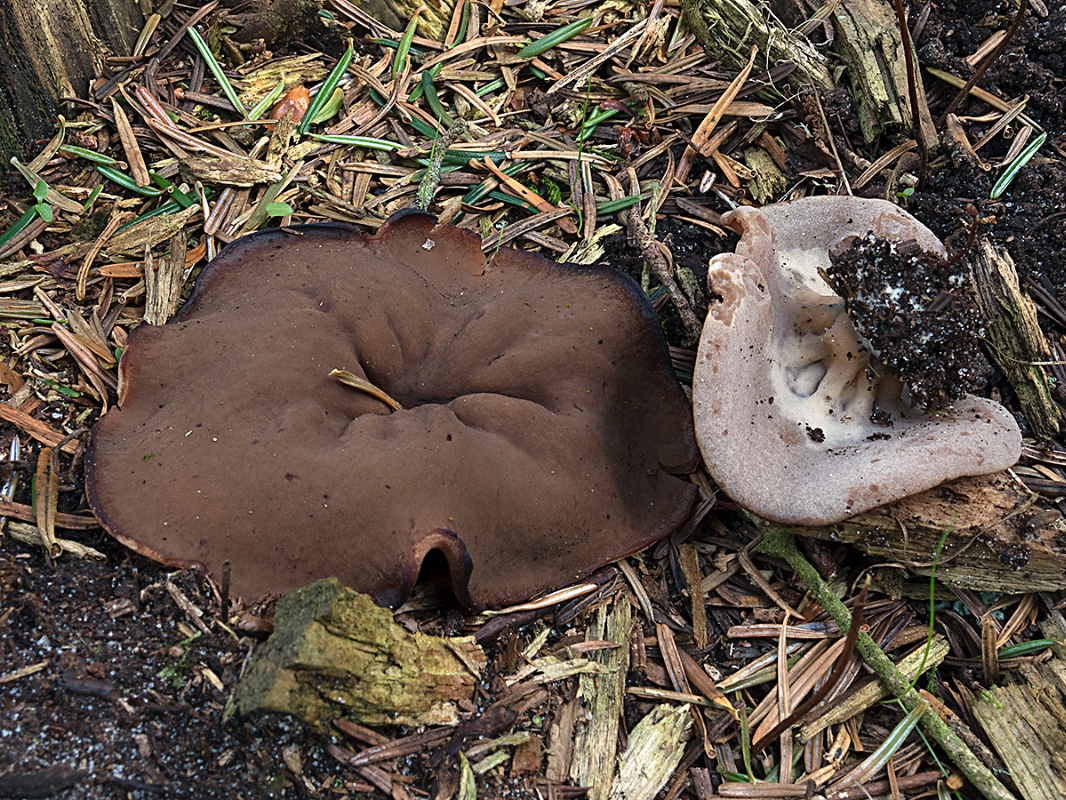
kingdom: Fungi
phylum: Ascomycota
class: Pezizomycetes
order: Pezizales
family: Discinaceae
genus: Discina
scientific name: Discina ancilis
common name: udbredt stenmorkel
